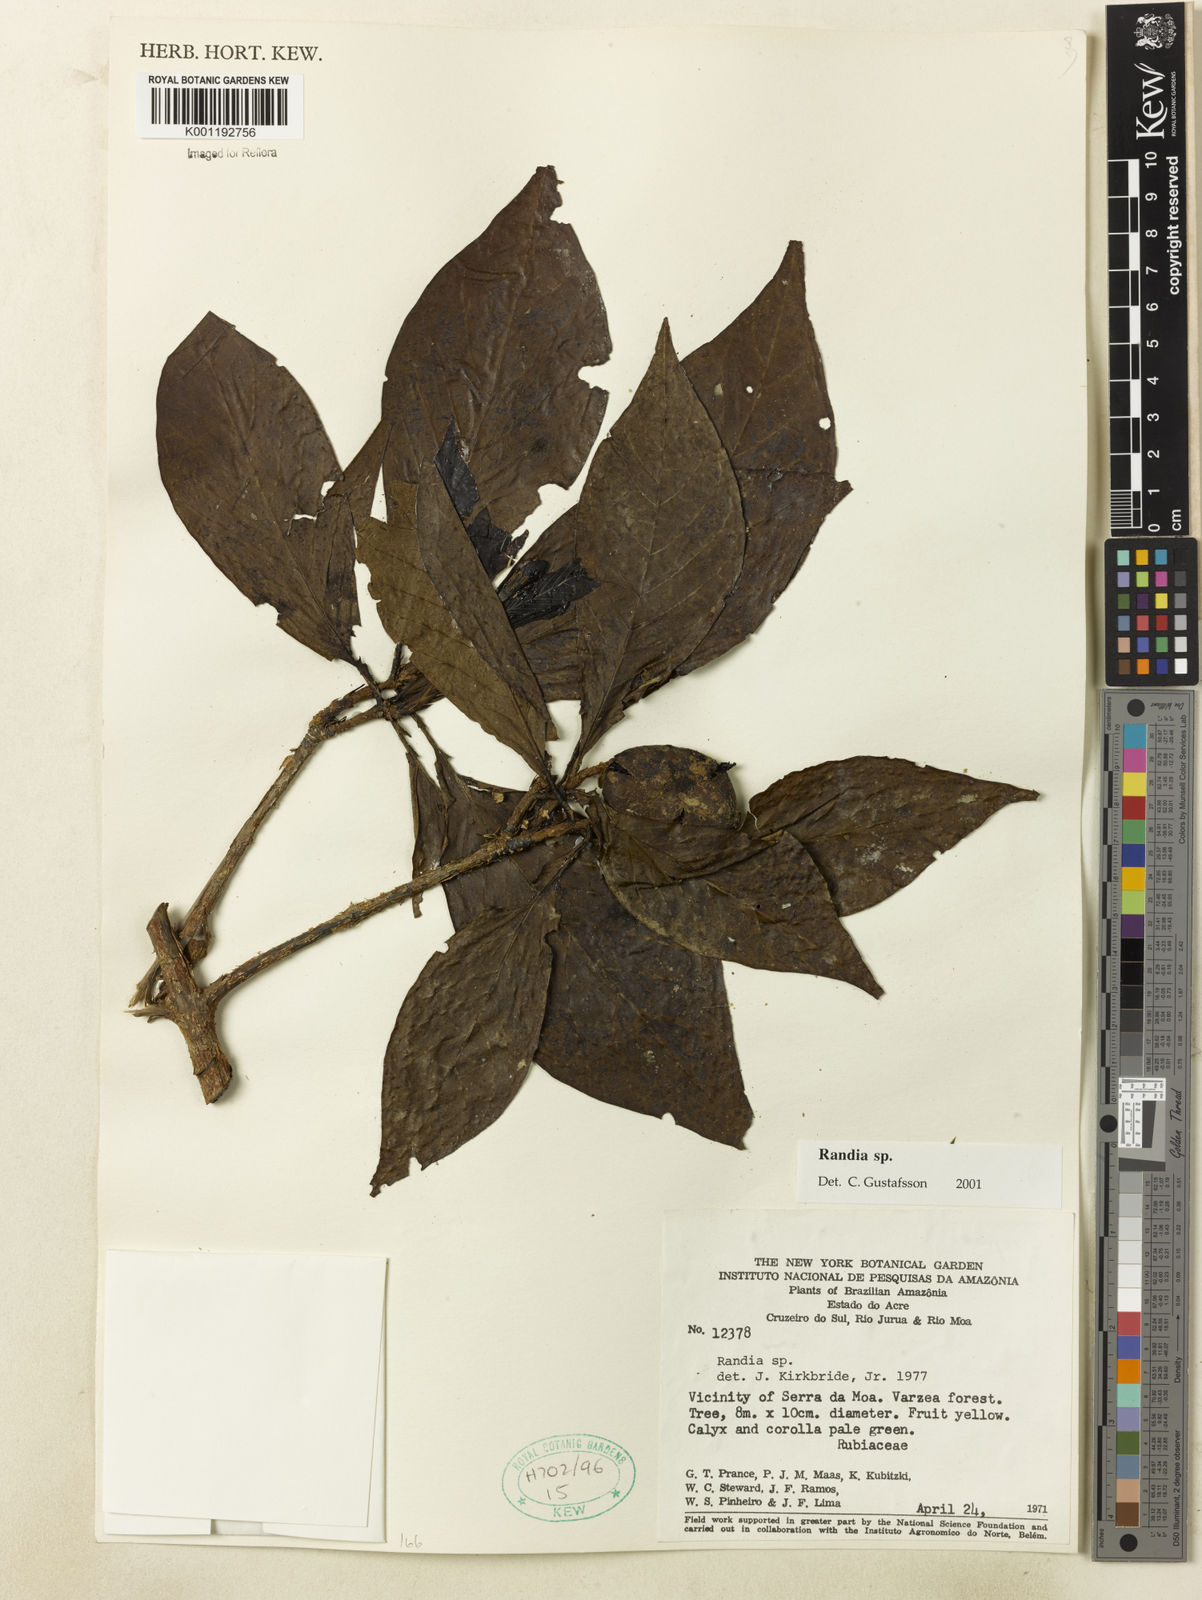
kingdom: Plantae
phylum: Tracheophyta
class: Magnoliopsida
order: Gentianales
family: Rubiaceae
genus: Randia
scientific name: Randia
